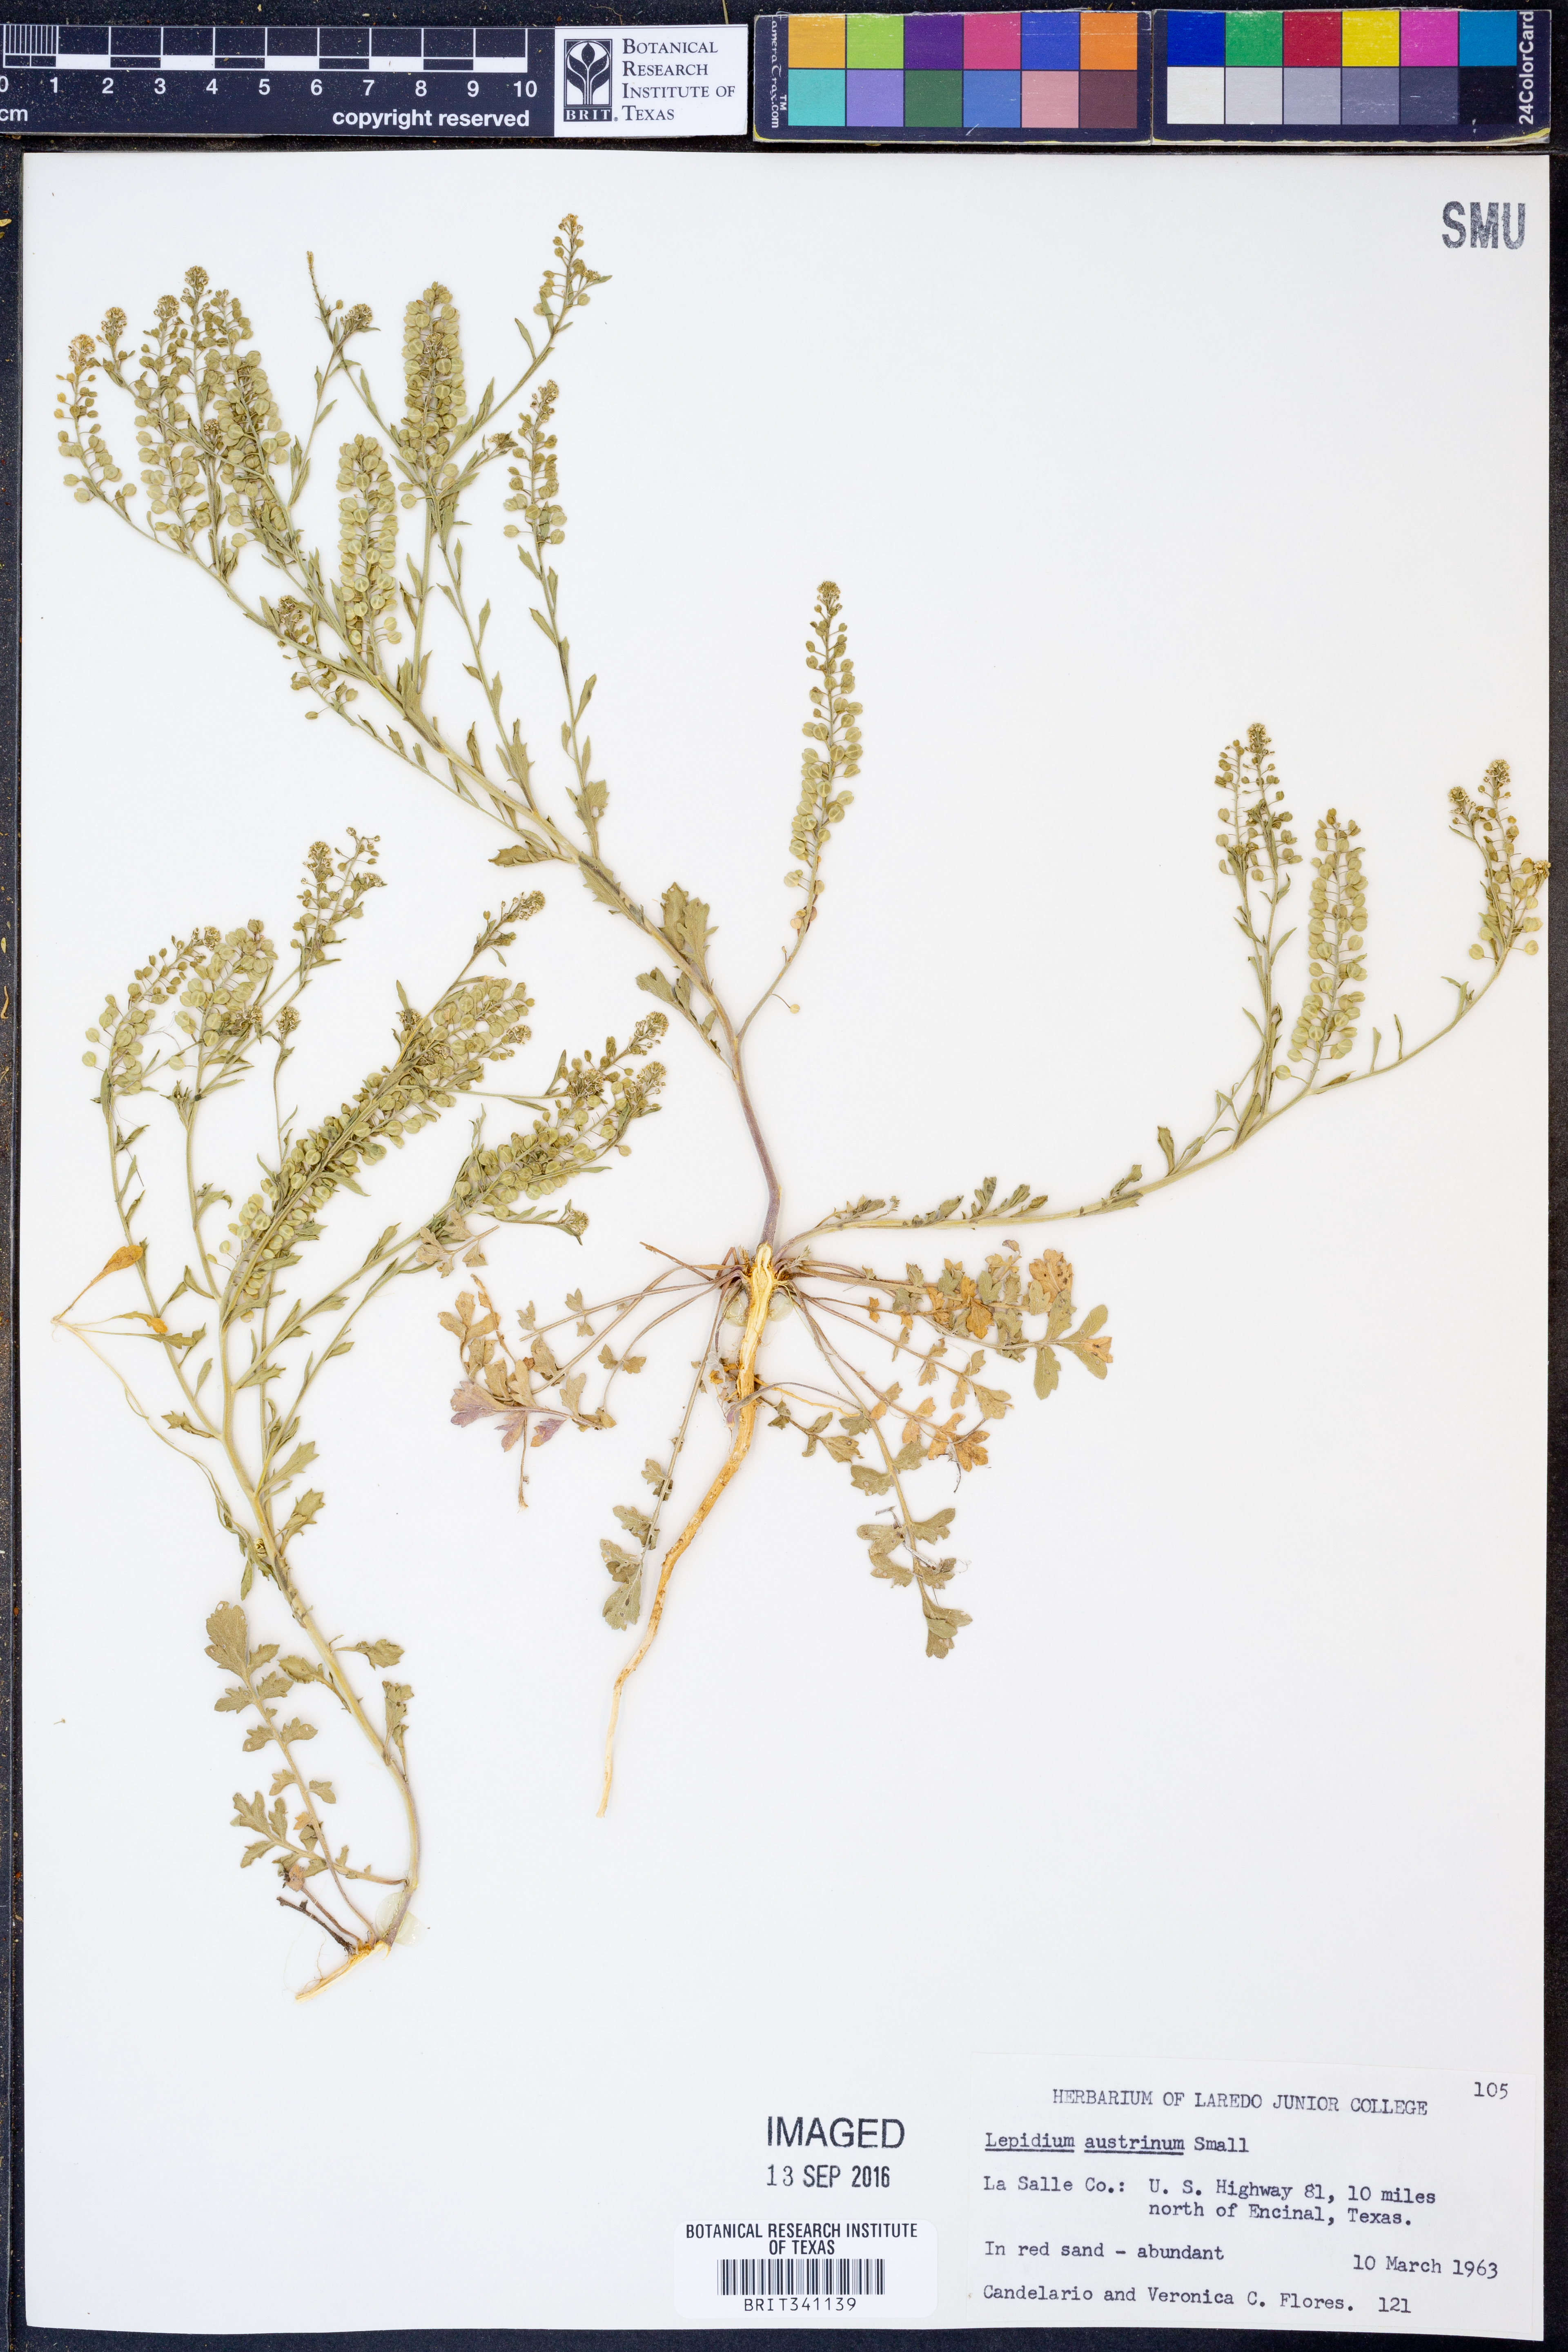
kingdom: Plantae
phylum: Tracheophyta
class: Magnoliopsida
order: Brassicales
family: Brassicaceae
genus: Lepidium
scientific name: Lepidium austrinum
